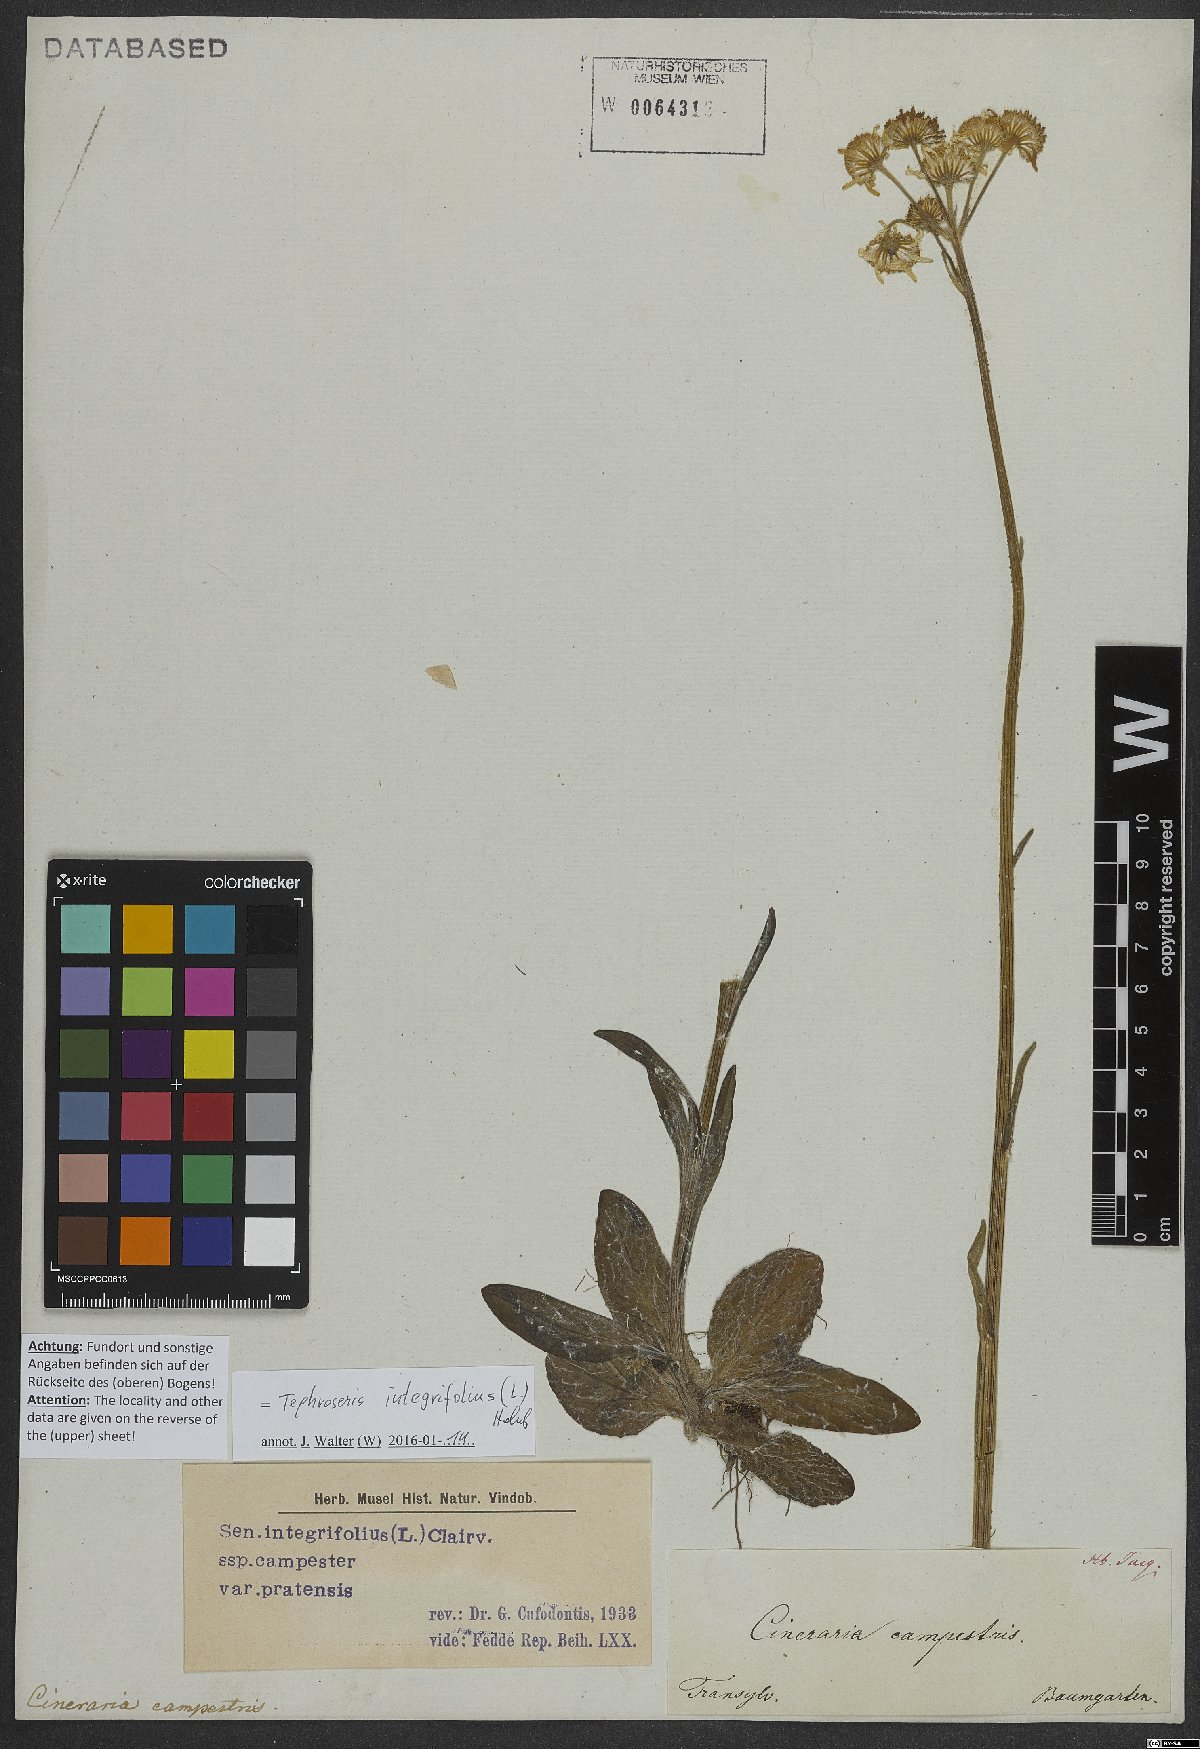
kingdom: Plantae
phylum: Tracheophyta
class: Magnoliopsida
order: Asterales
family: Asteraceae
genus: Tephroseris
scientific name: Tephroseris integrifolia
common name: Field fleawort
